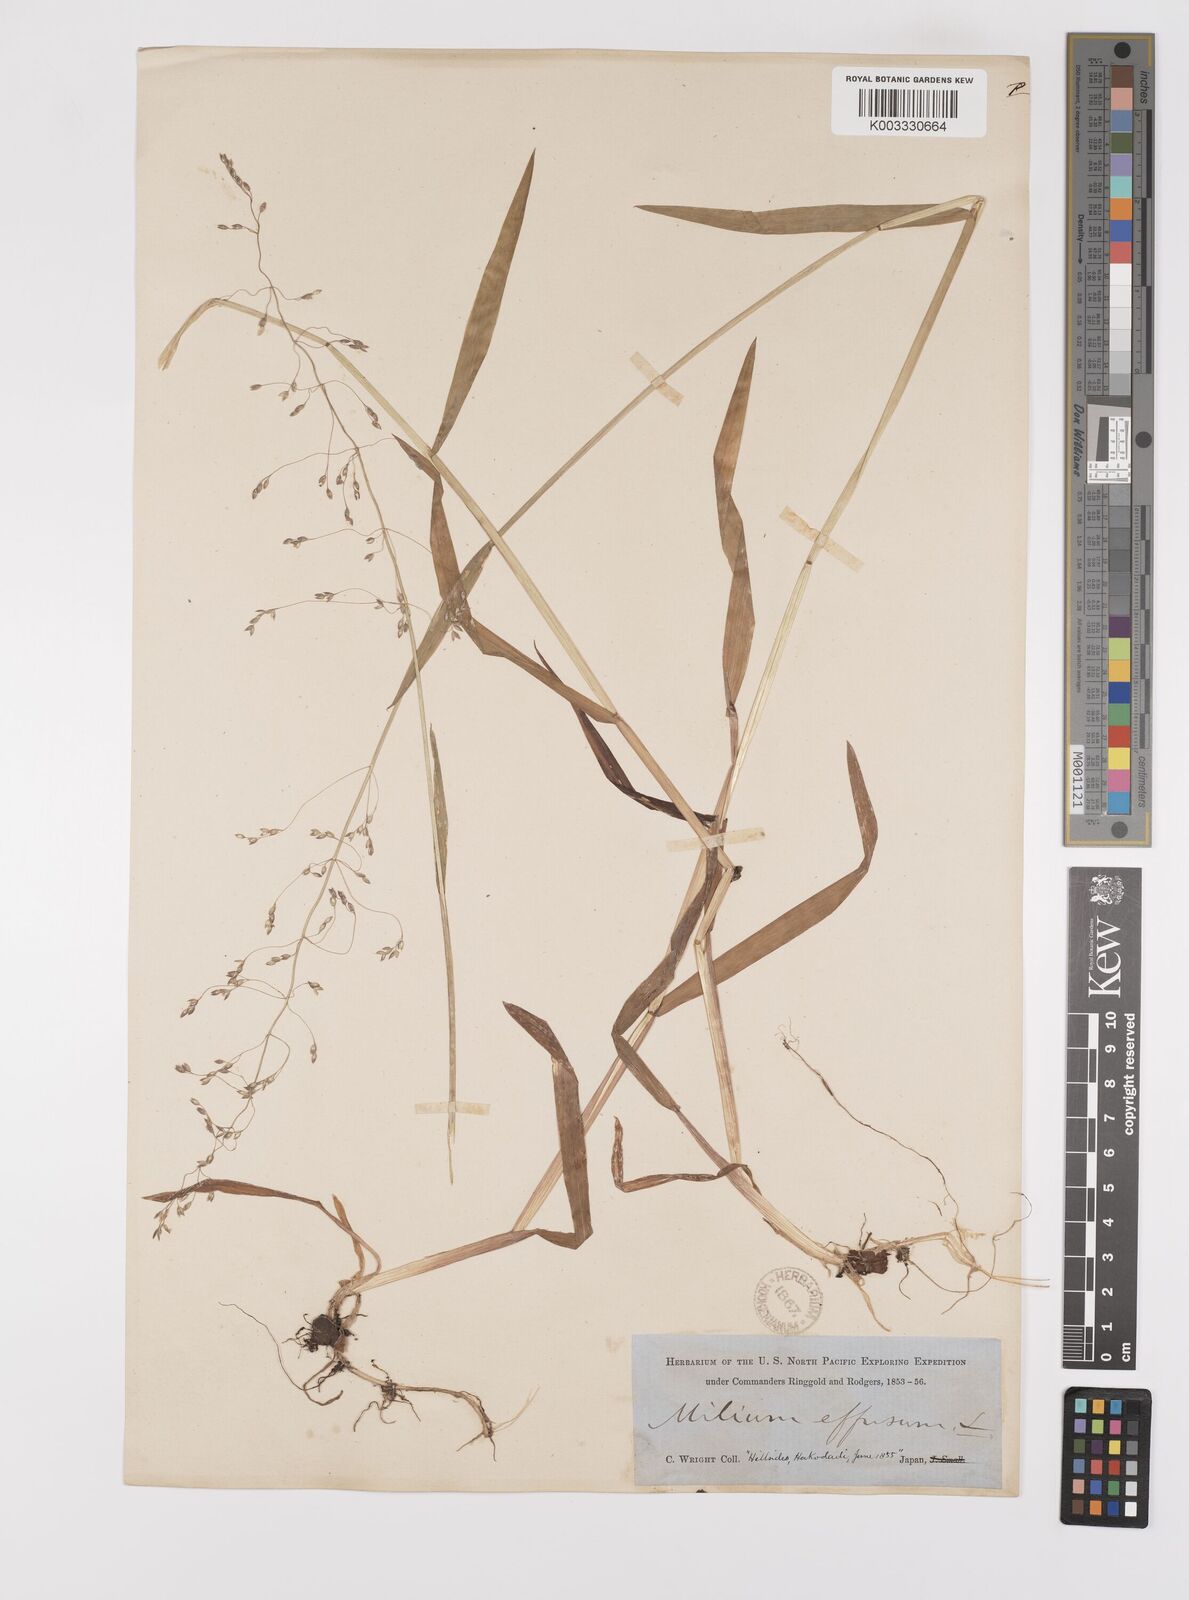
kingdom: Plantae
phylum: Tracheophyta
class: Liliopsida
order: Poales
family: Poaceae
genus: Milium
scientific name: Milium effusum
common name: Wood millet
